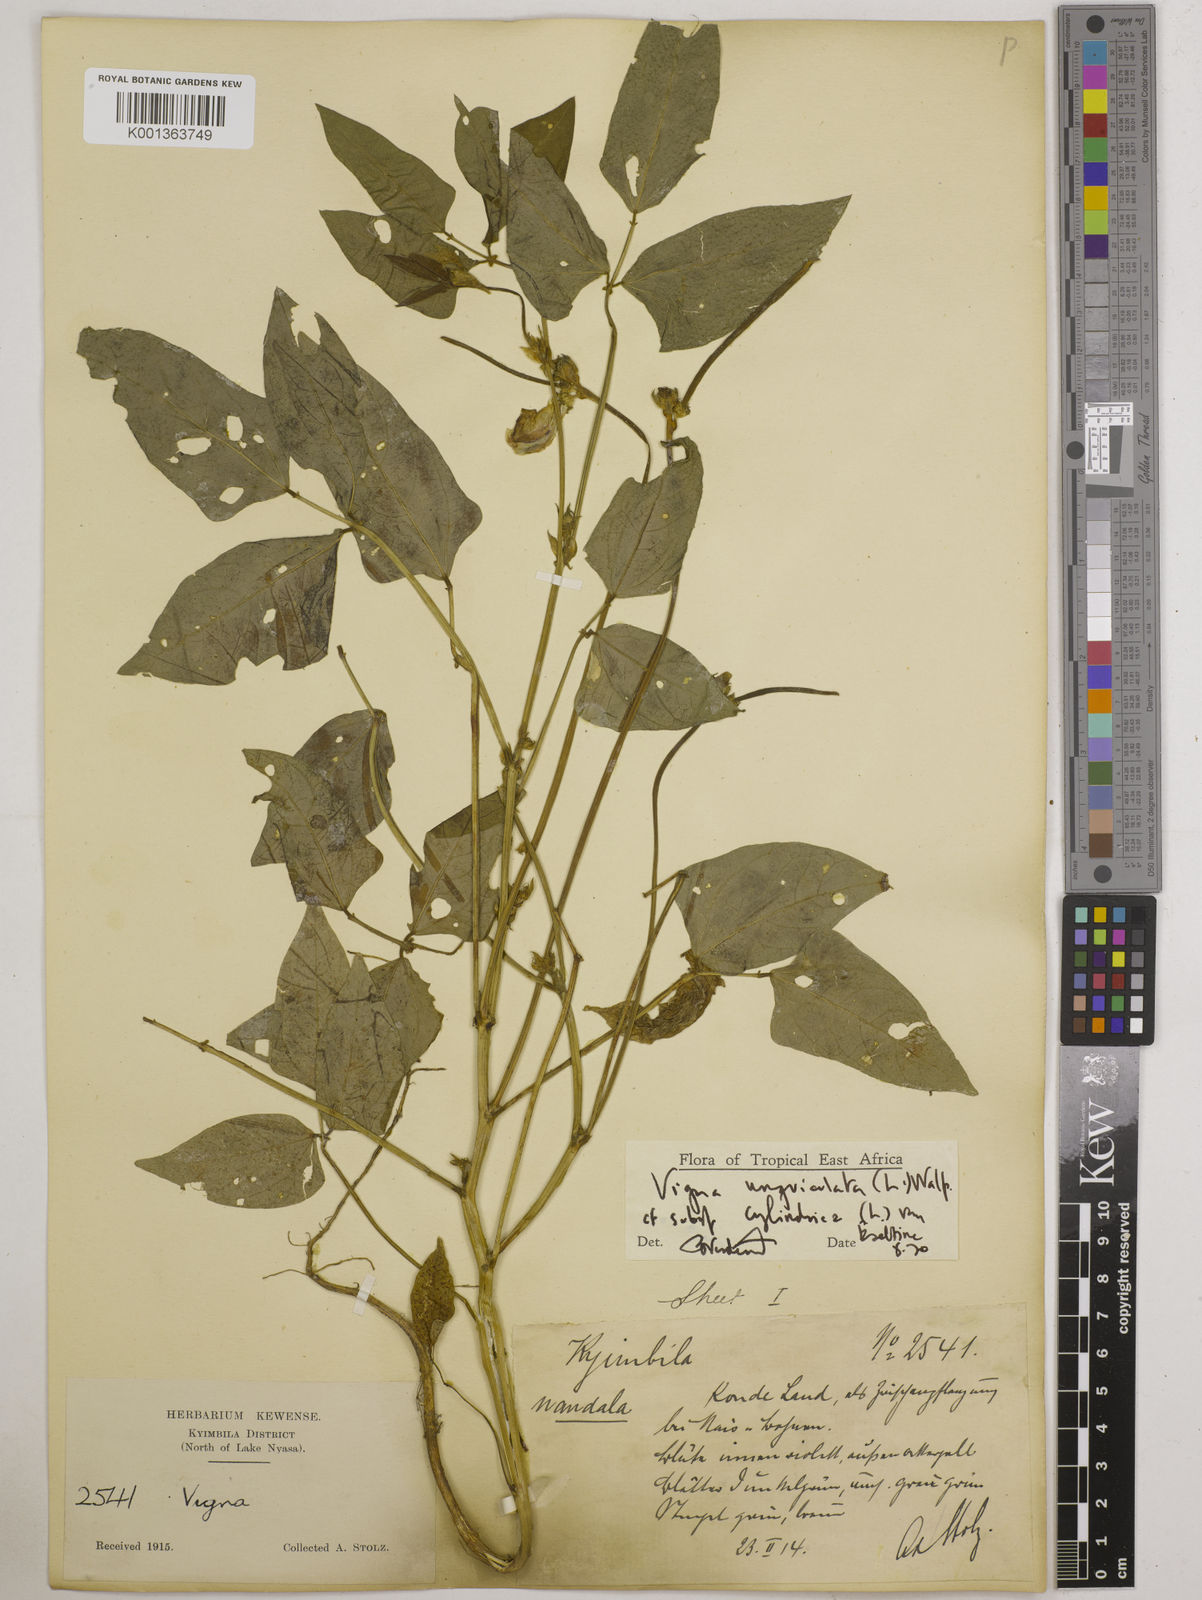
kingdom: Plantae
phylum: Tracheophyta
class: Magnoliopsida
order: Fabales
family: Fabaceae
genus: Vigna
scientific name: Vigna
